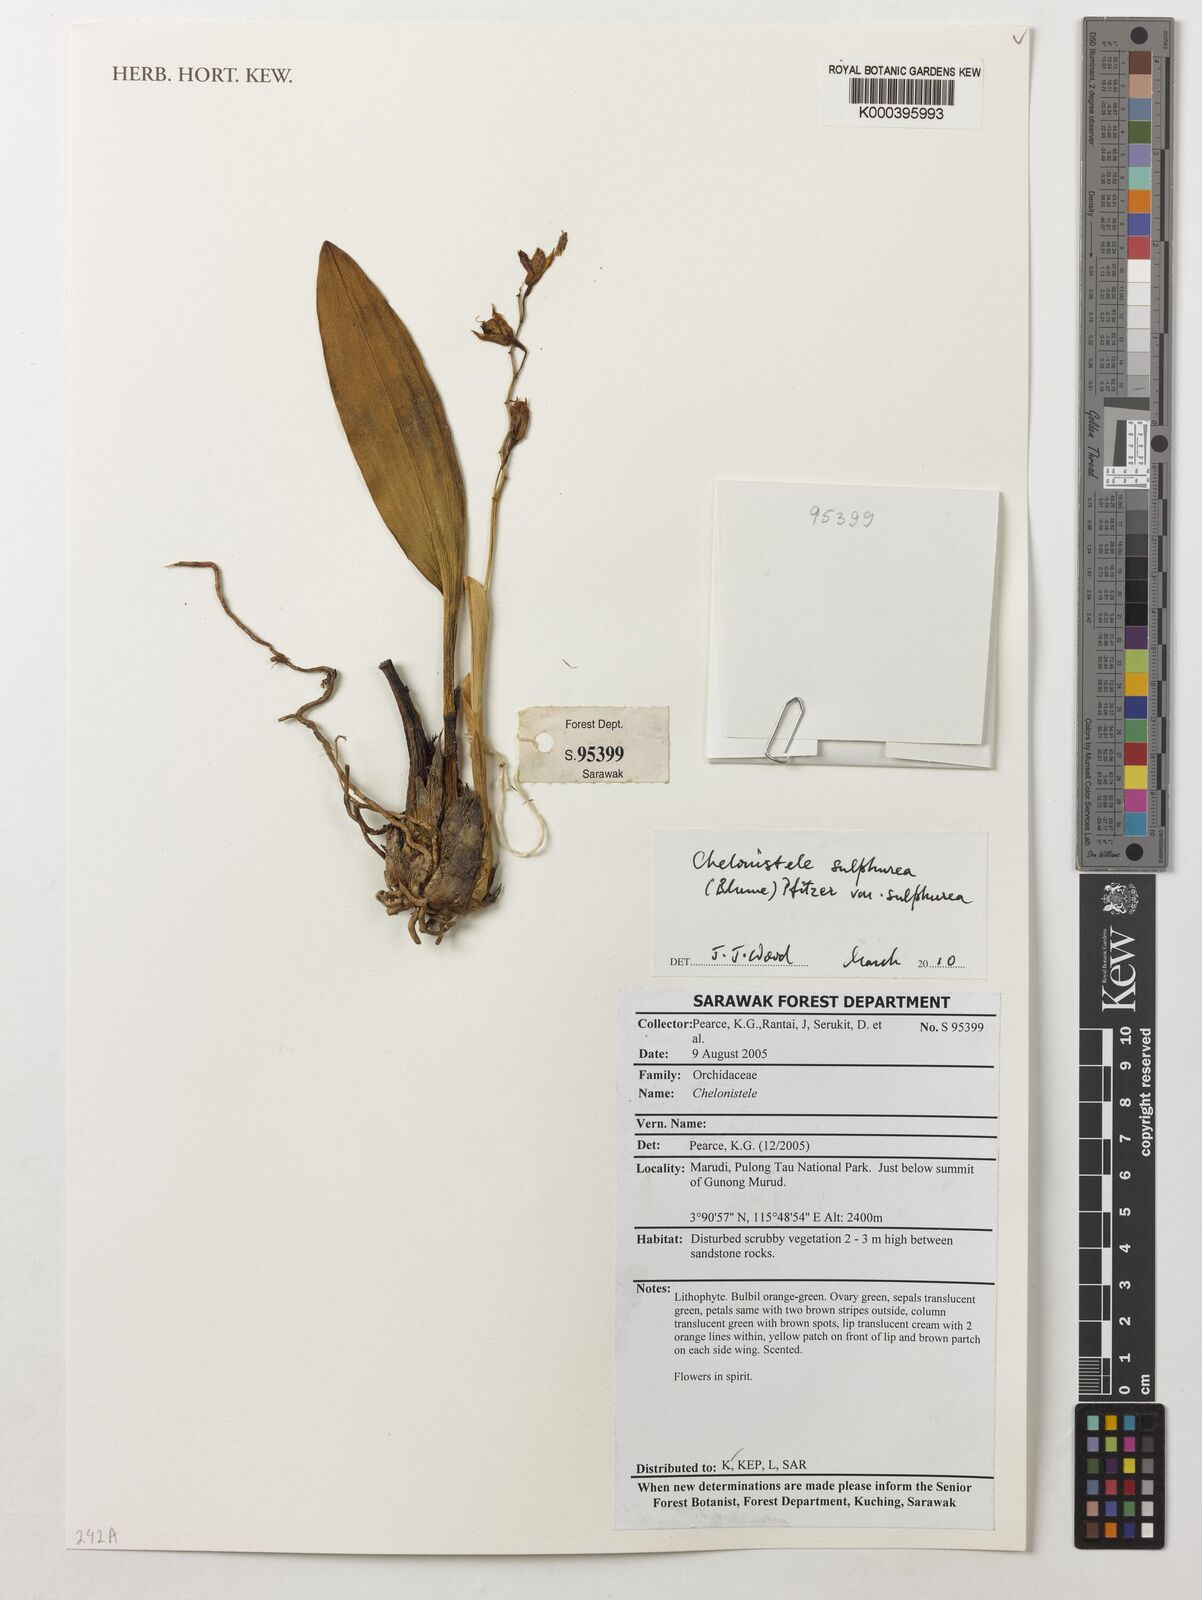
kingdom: Plantae
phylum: Tracheophyta
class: Liliopsida
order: Asparagales
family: Orchidaceae
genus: Coelogyne
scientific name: Coelogyne sulphurea
